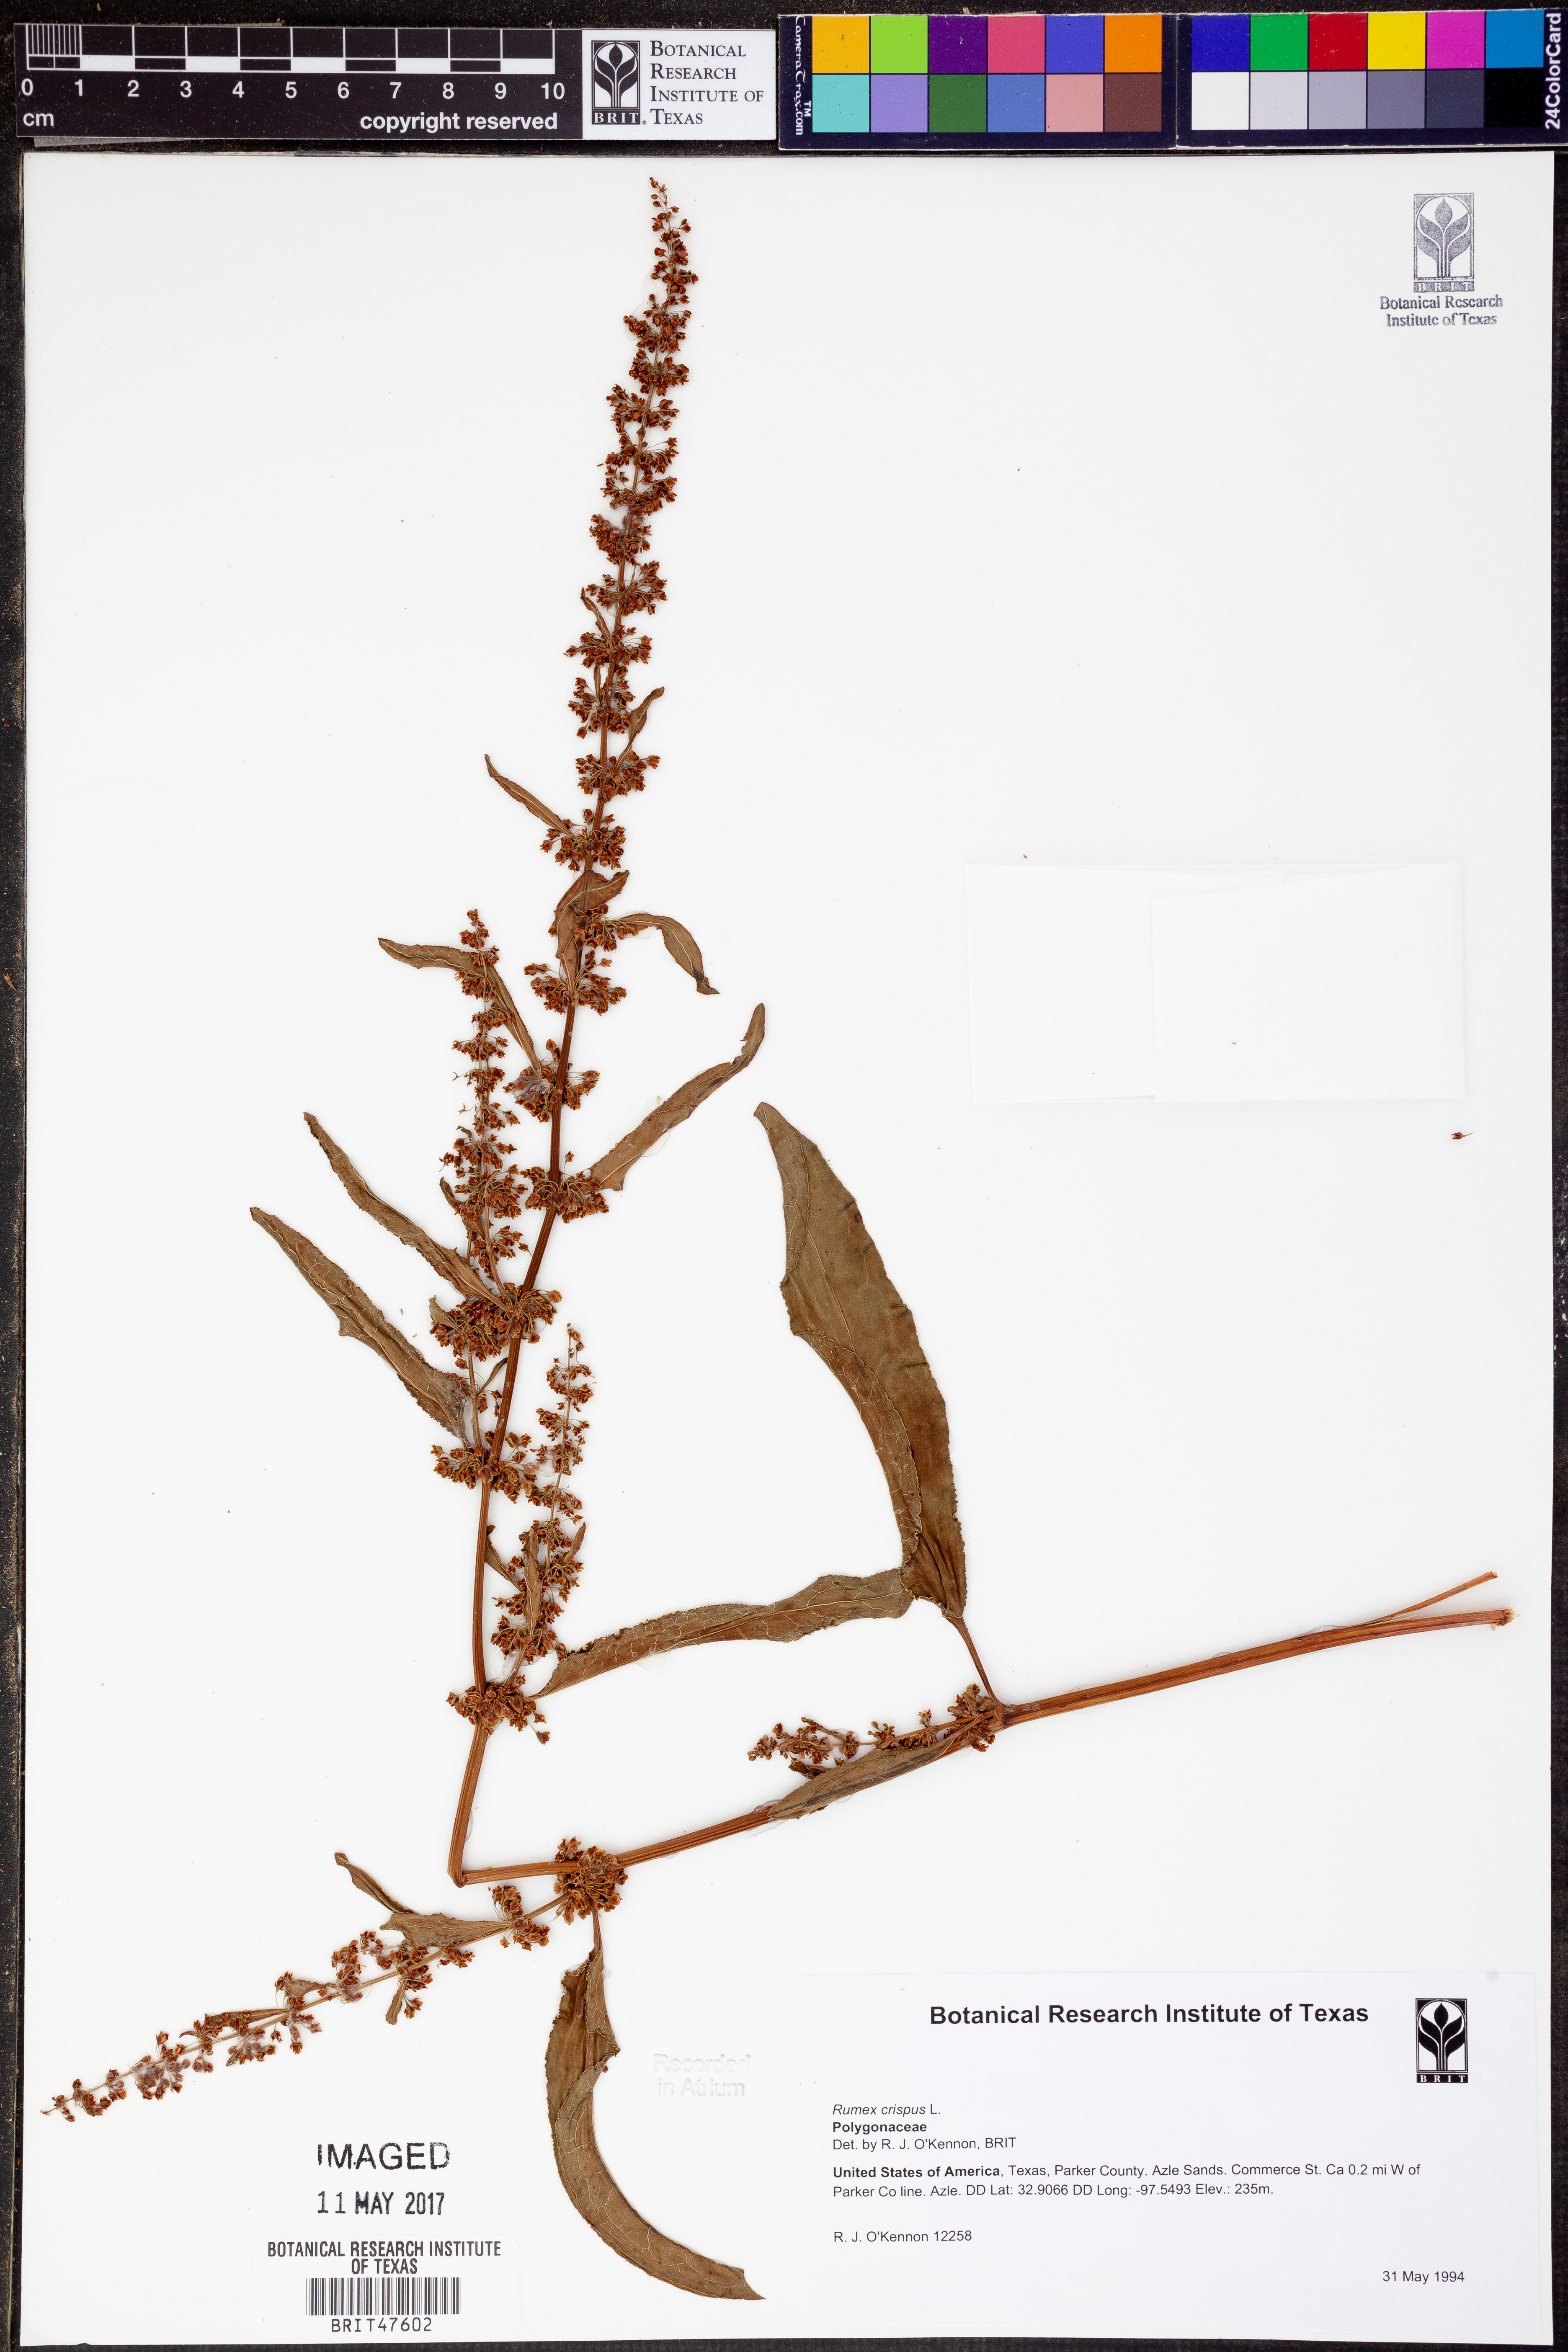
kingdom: Plantae
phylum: Tracheophyta
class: Magnoliopsida
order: Caryophyllales
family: Polygonaceae
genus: Rumex
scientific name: Rumex crispus
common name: Curled dock
